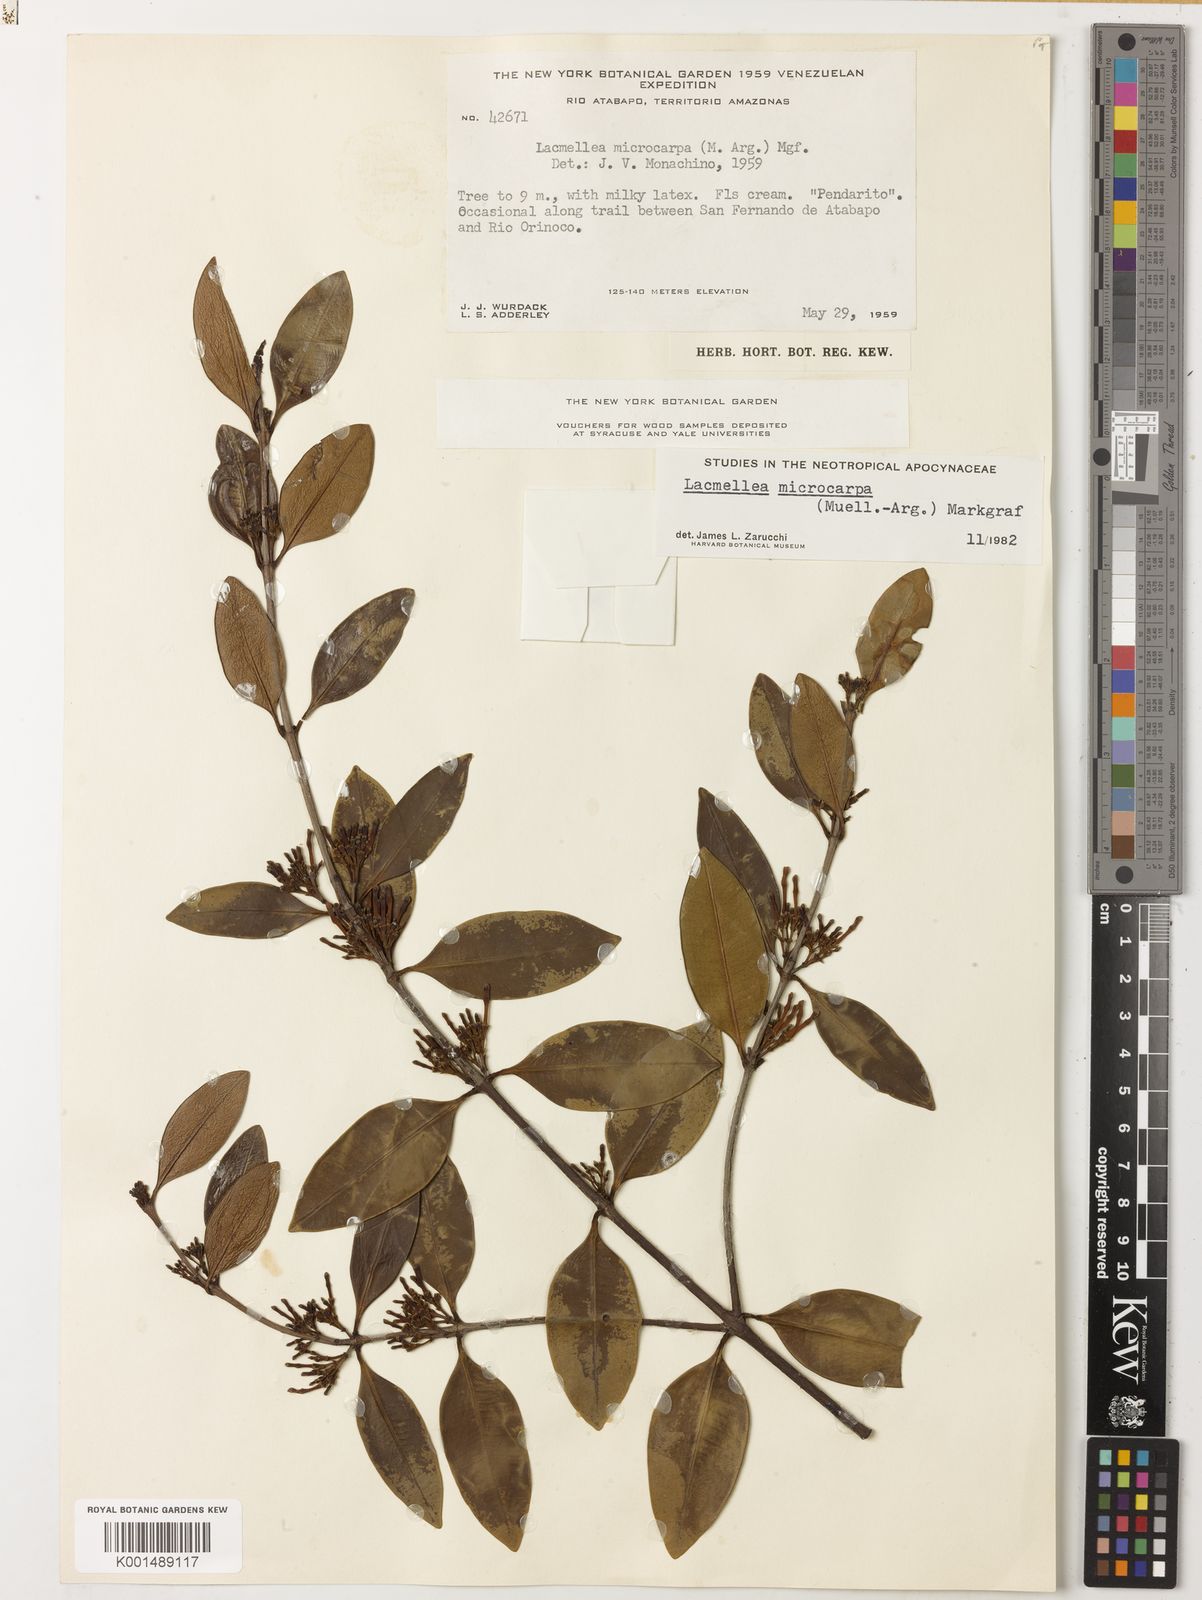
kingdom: Plantae
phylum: Tracheophyta
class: Magnoliopsida
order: Gentianales
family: Apocynaceae
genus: Lacmellea
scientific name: Lacmellea microcarpa
